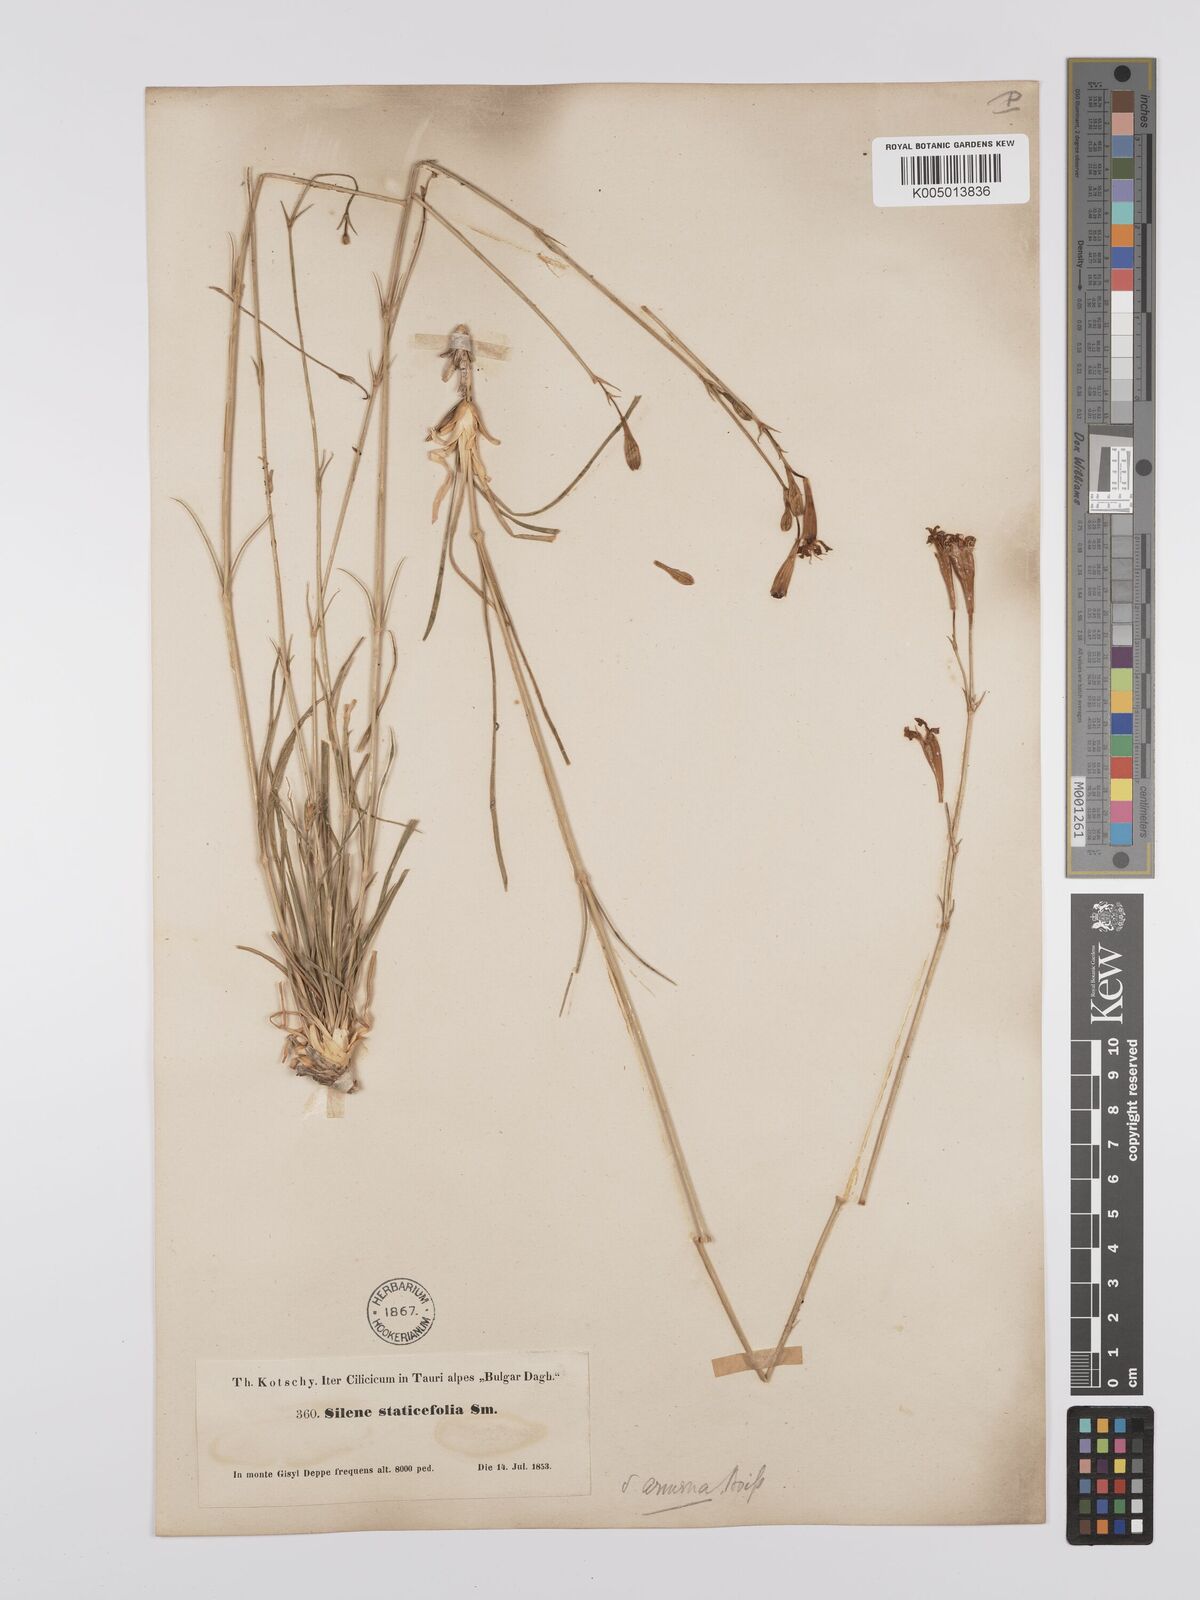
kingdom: Plantae
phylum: Tracheophyta
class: Magnoliopsida
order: Caryophyllales
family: Caryophyllaceae
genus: Silene
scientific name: Silene
